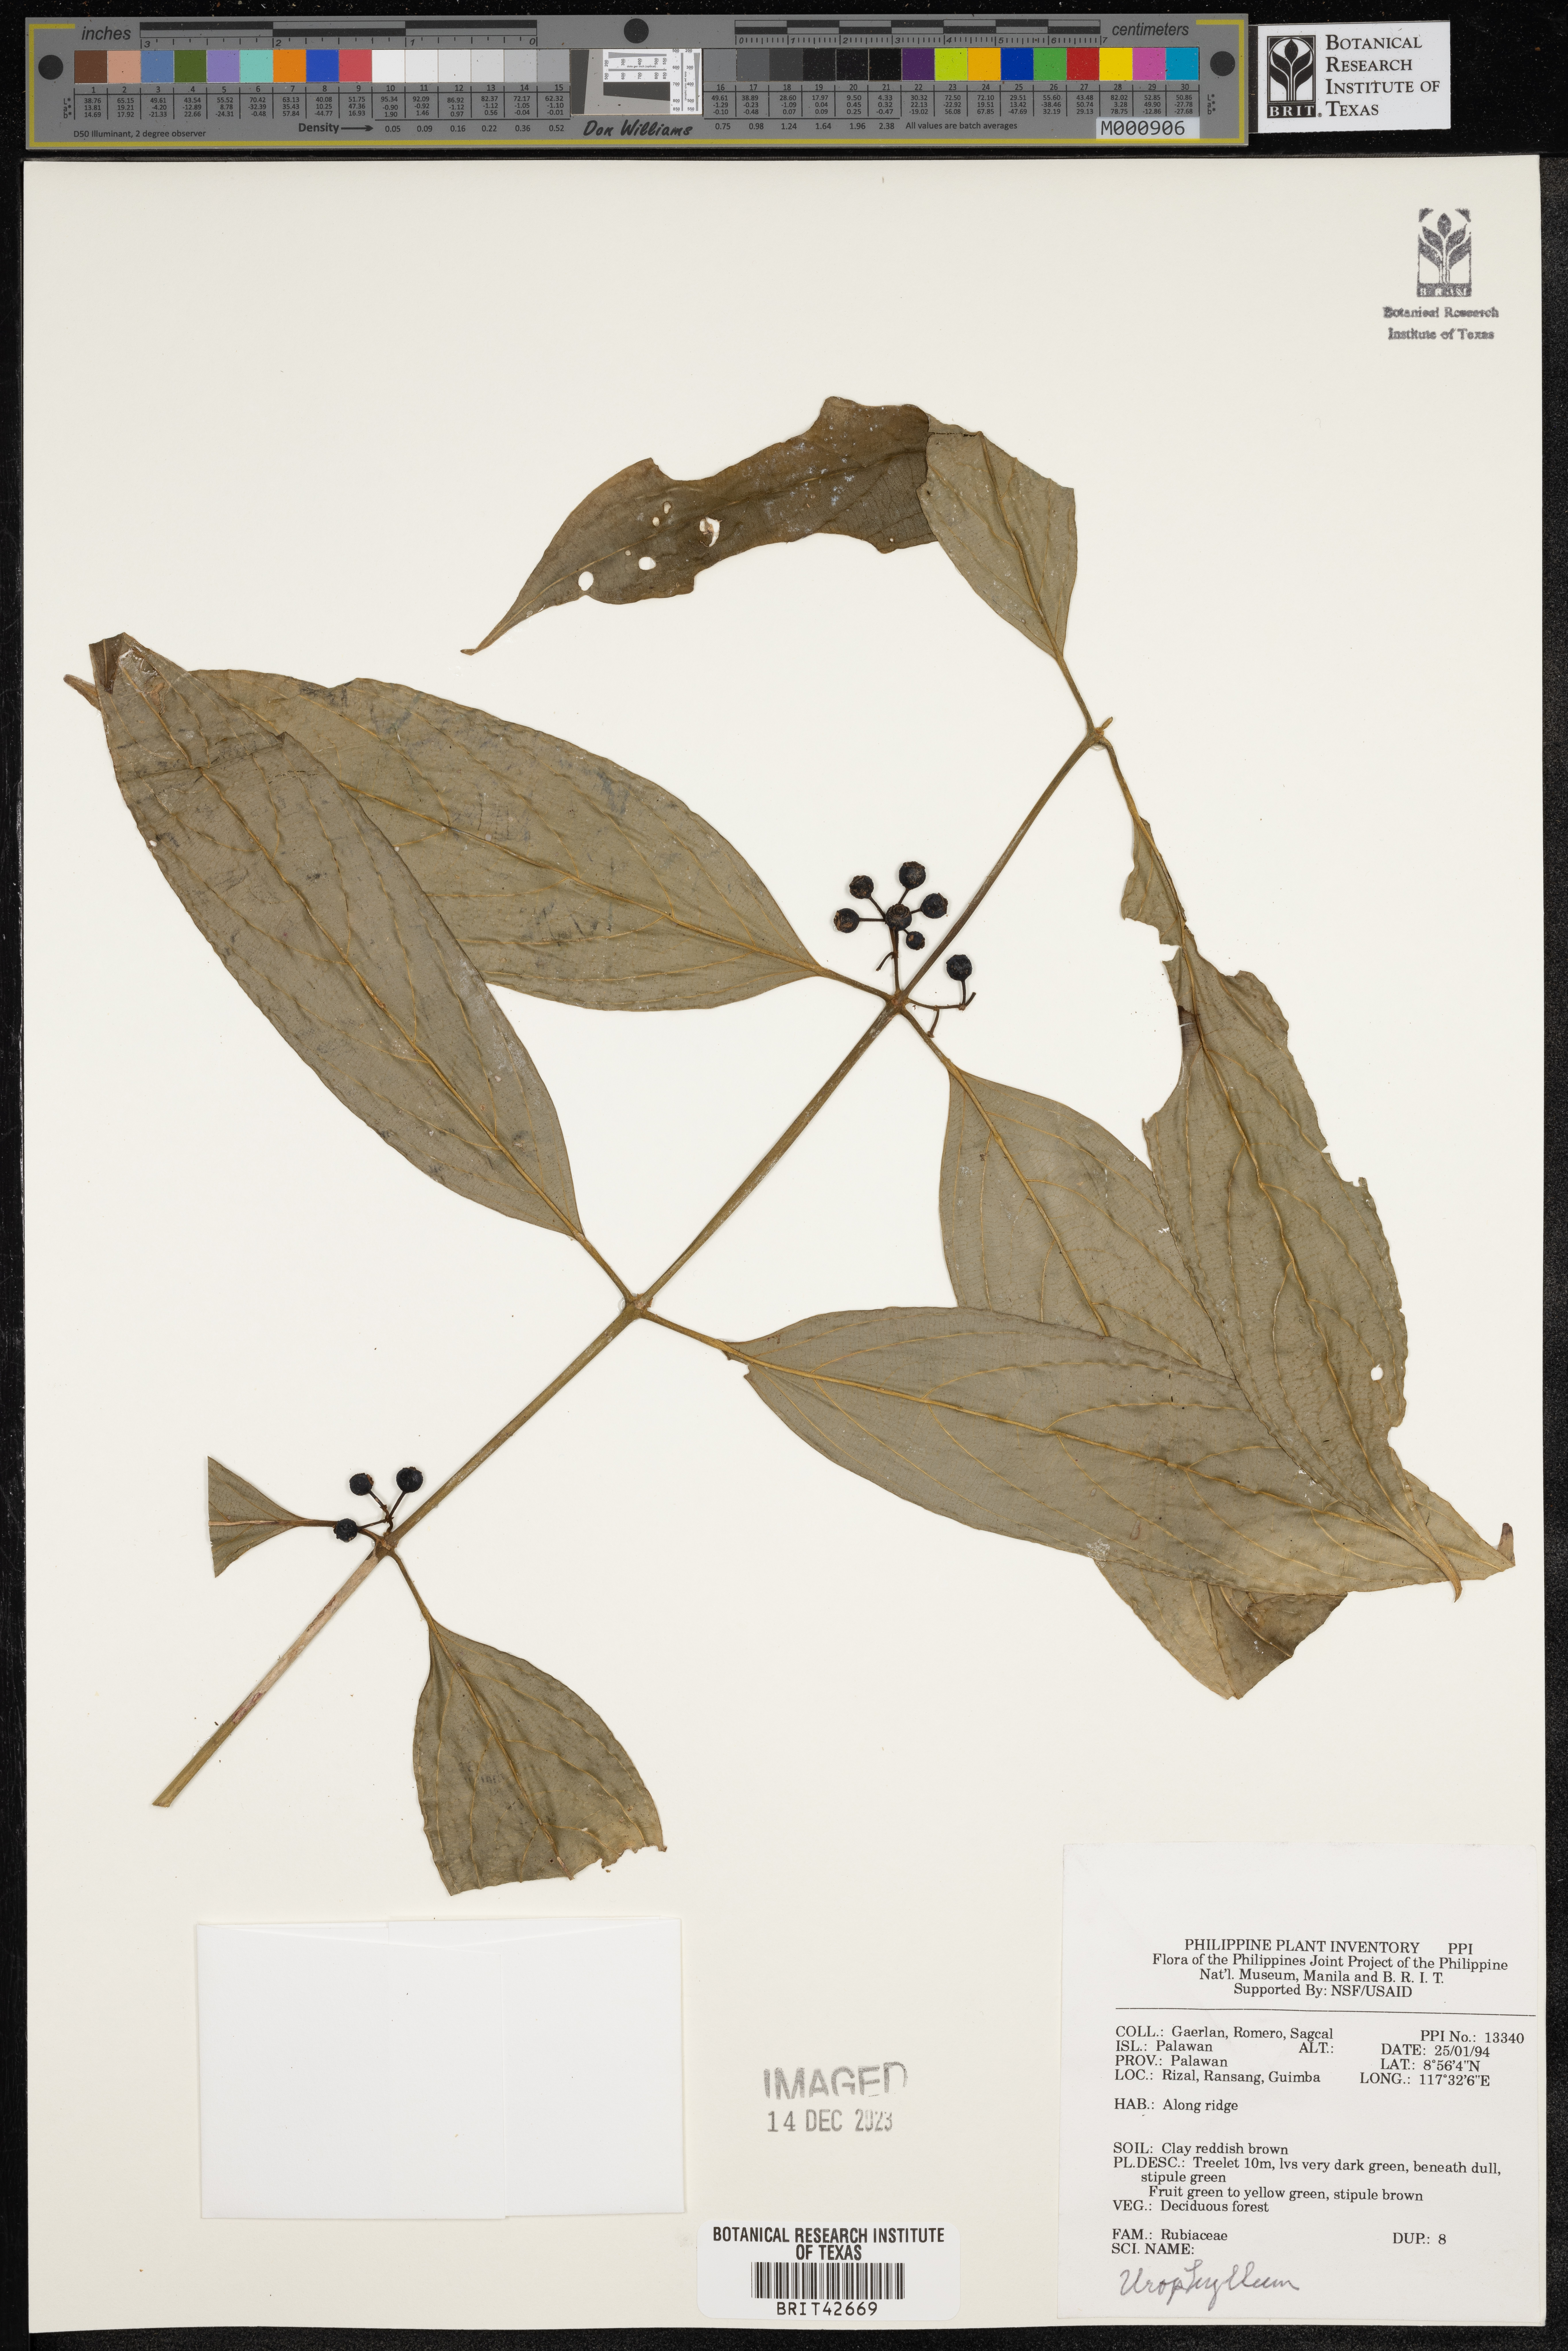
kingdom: Plantae
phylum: Tracheophyta
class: Magnoliopsida
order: Gentianales
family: Rubiaceae
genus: Urophyllum
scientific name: Urophyllum
